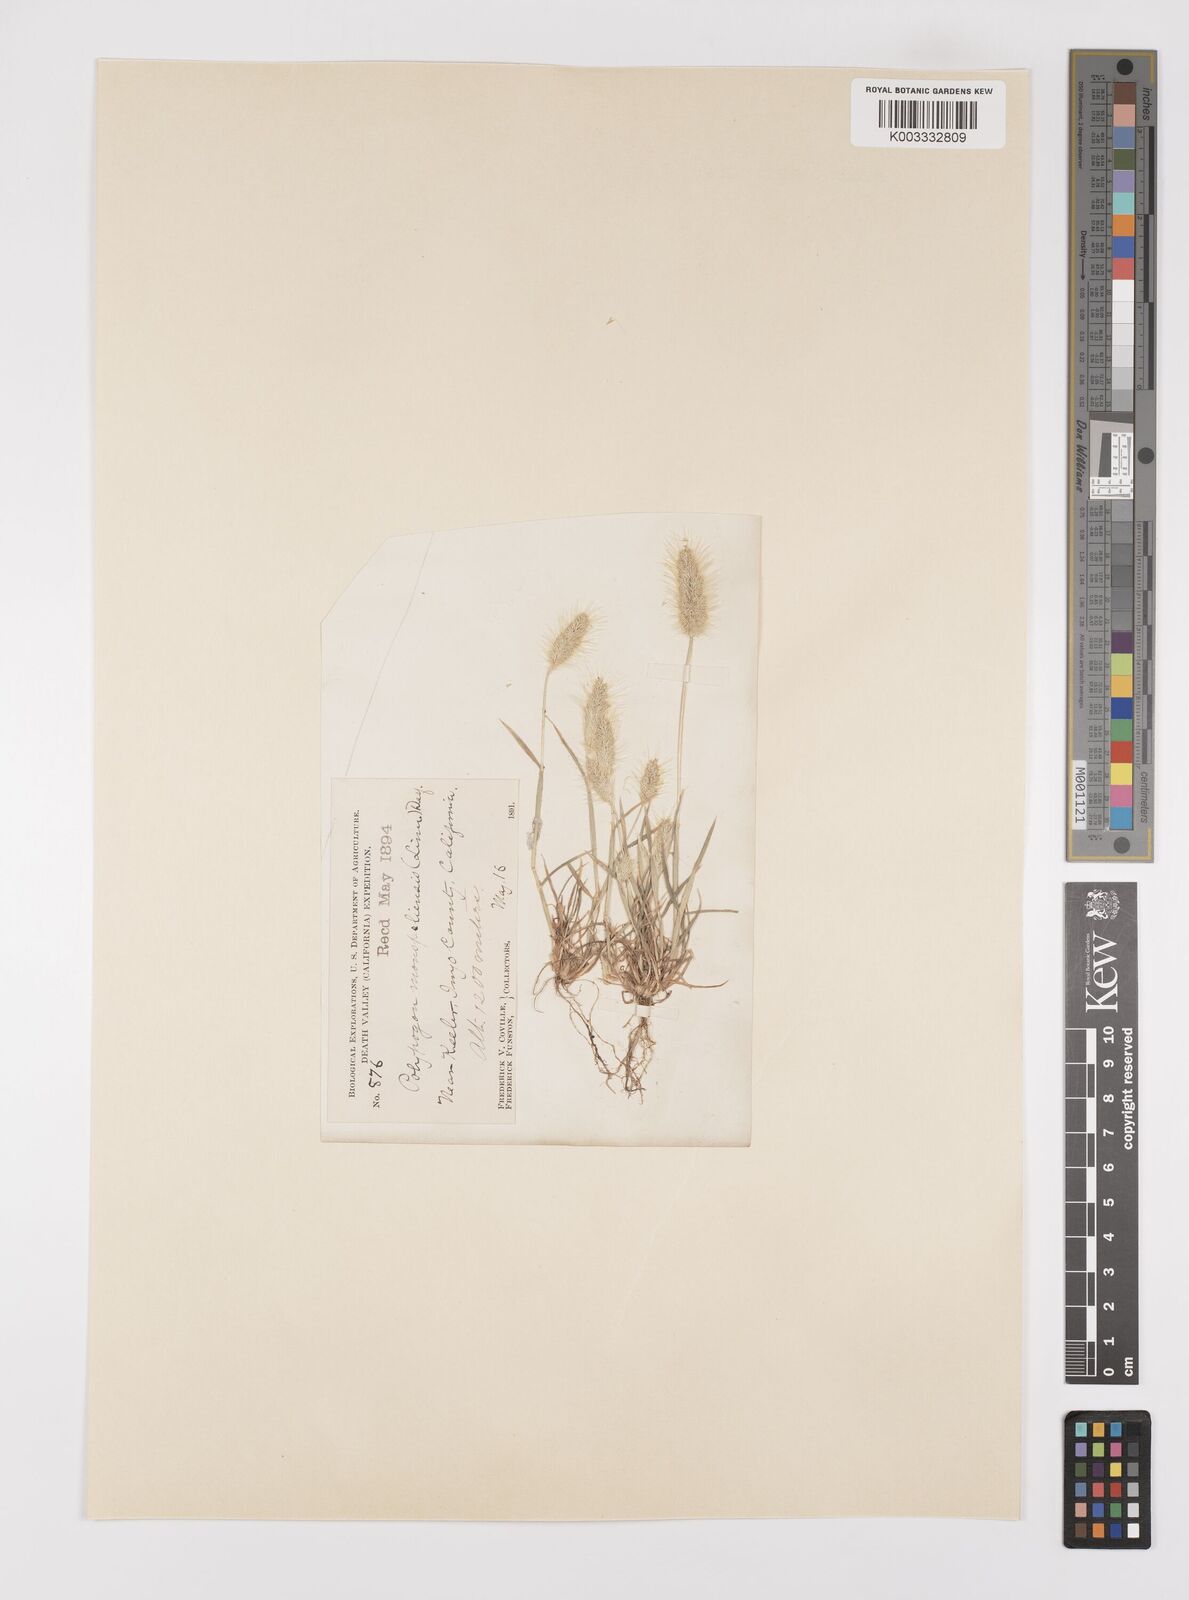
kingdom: Plantae
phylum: Tracheophyta
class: Liliopsida
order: Poales
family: Poaceae
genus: Polypogon
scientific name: Polypogon monspeliensis
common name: Annual rabbitsfoot grass
